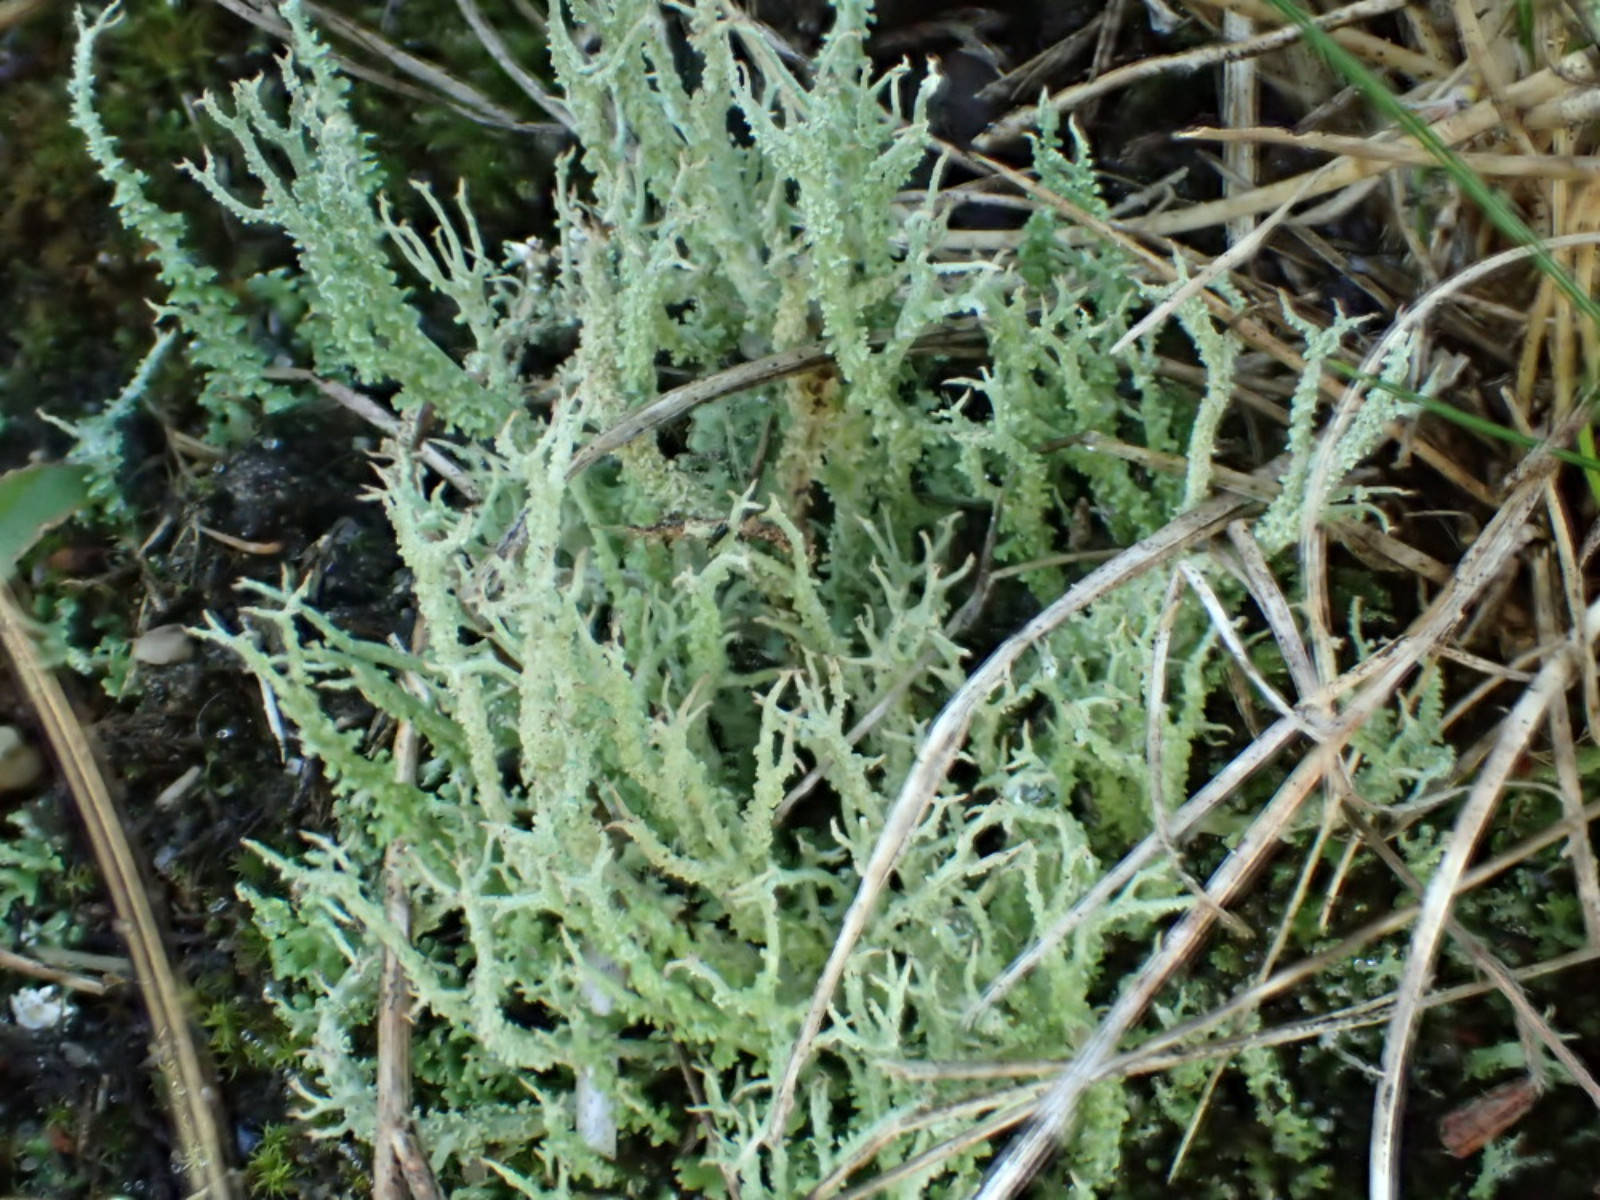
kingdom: Fungi
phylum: Ascomycota
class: Lecanoromycetes
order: Lecanorales
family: Cladoniaceae
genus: Cladonia
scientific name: Cladonia scabriuscula
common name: ru bægerlav
